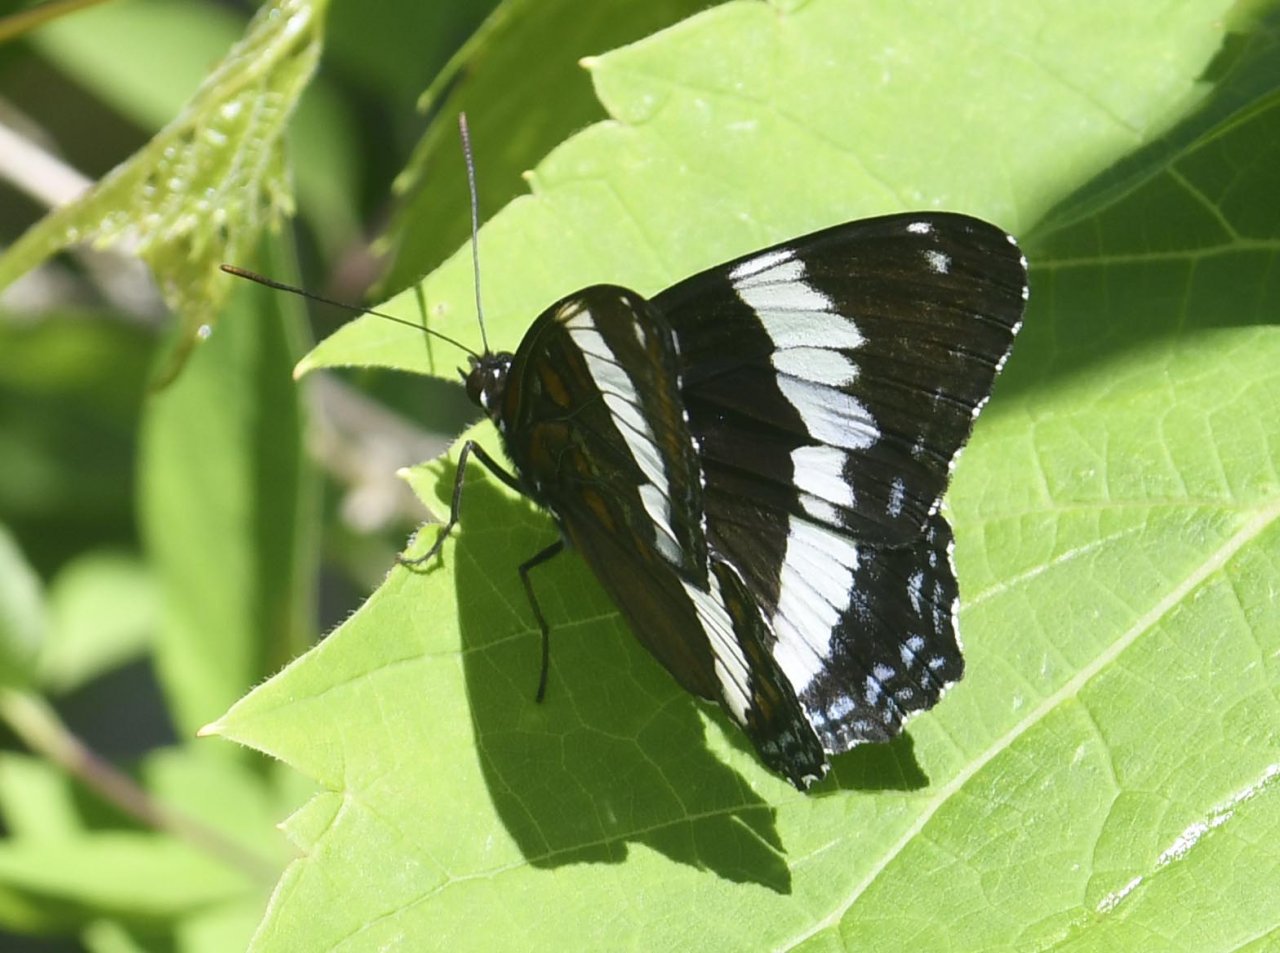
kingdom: Animalia
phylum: Arthropoda
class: Insecta
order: Lepidoptera
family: Nymphalidae
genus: Limenitis
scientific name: Limenitis arthemis
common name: Red-spotted Admiral
